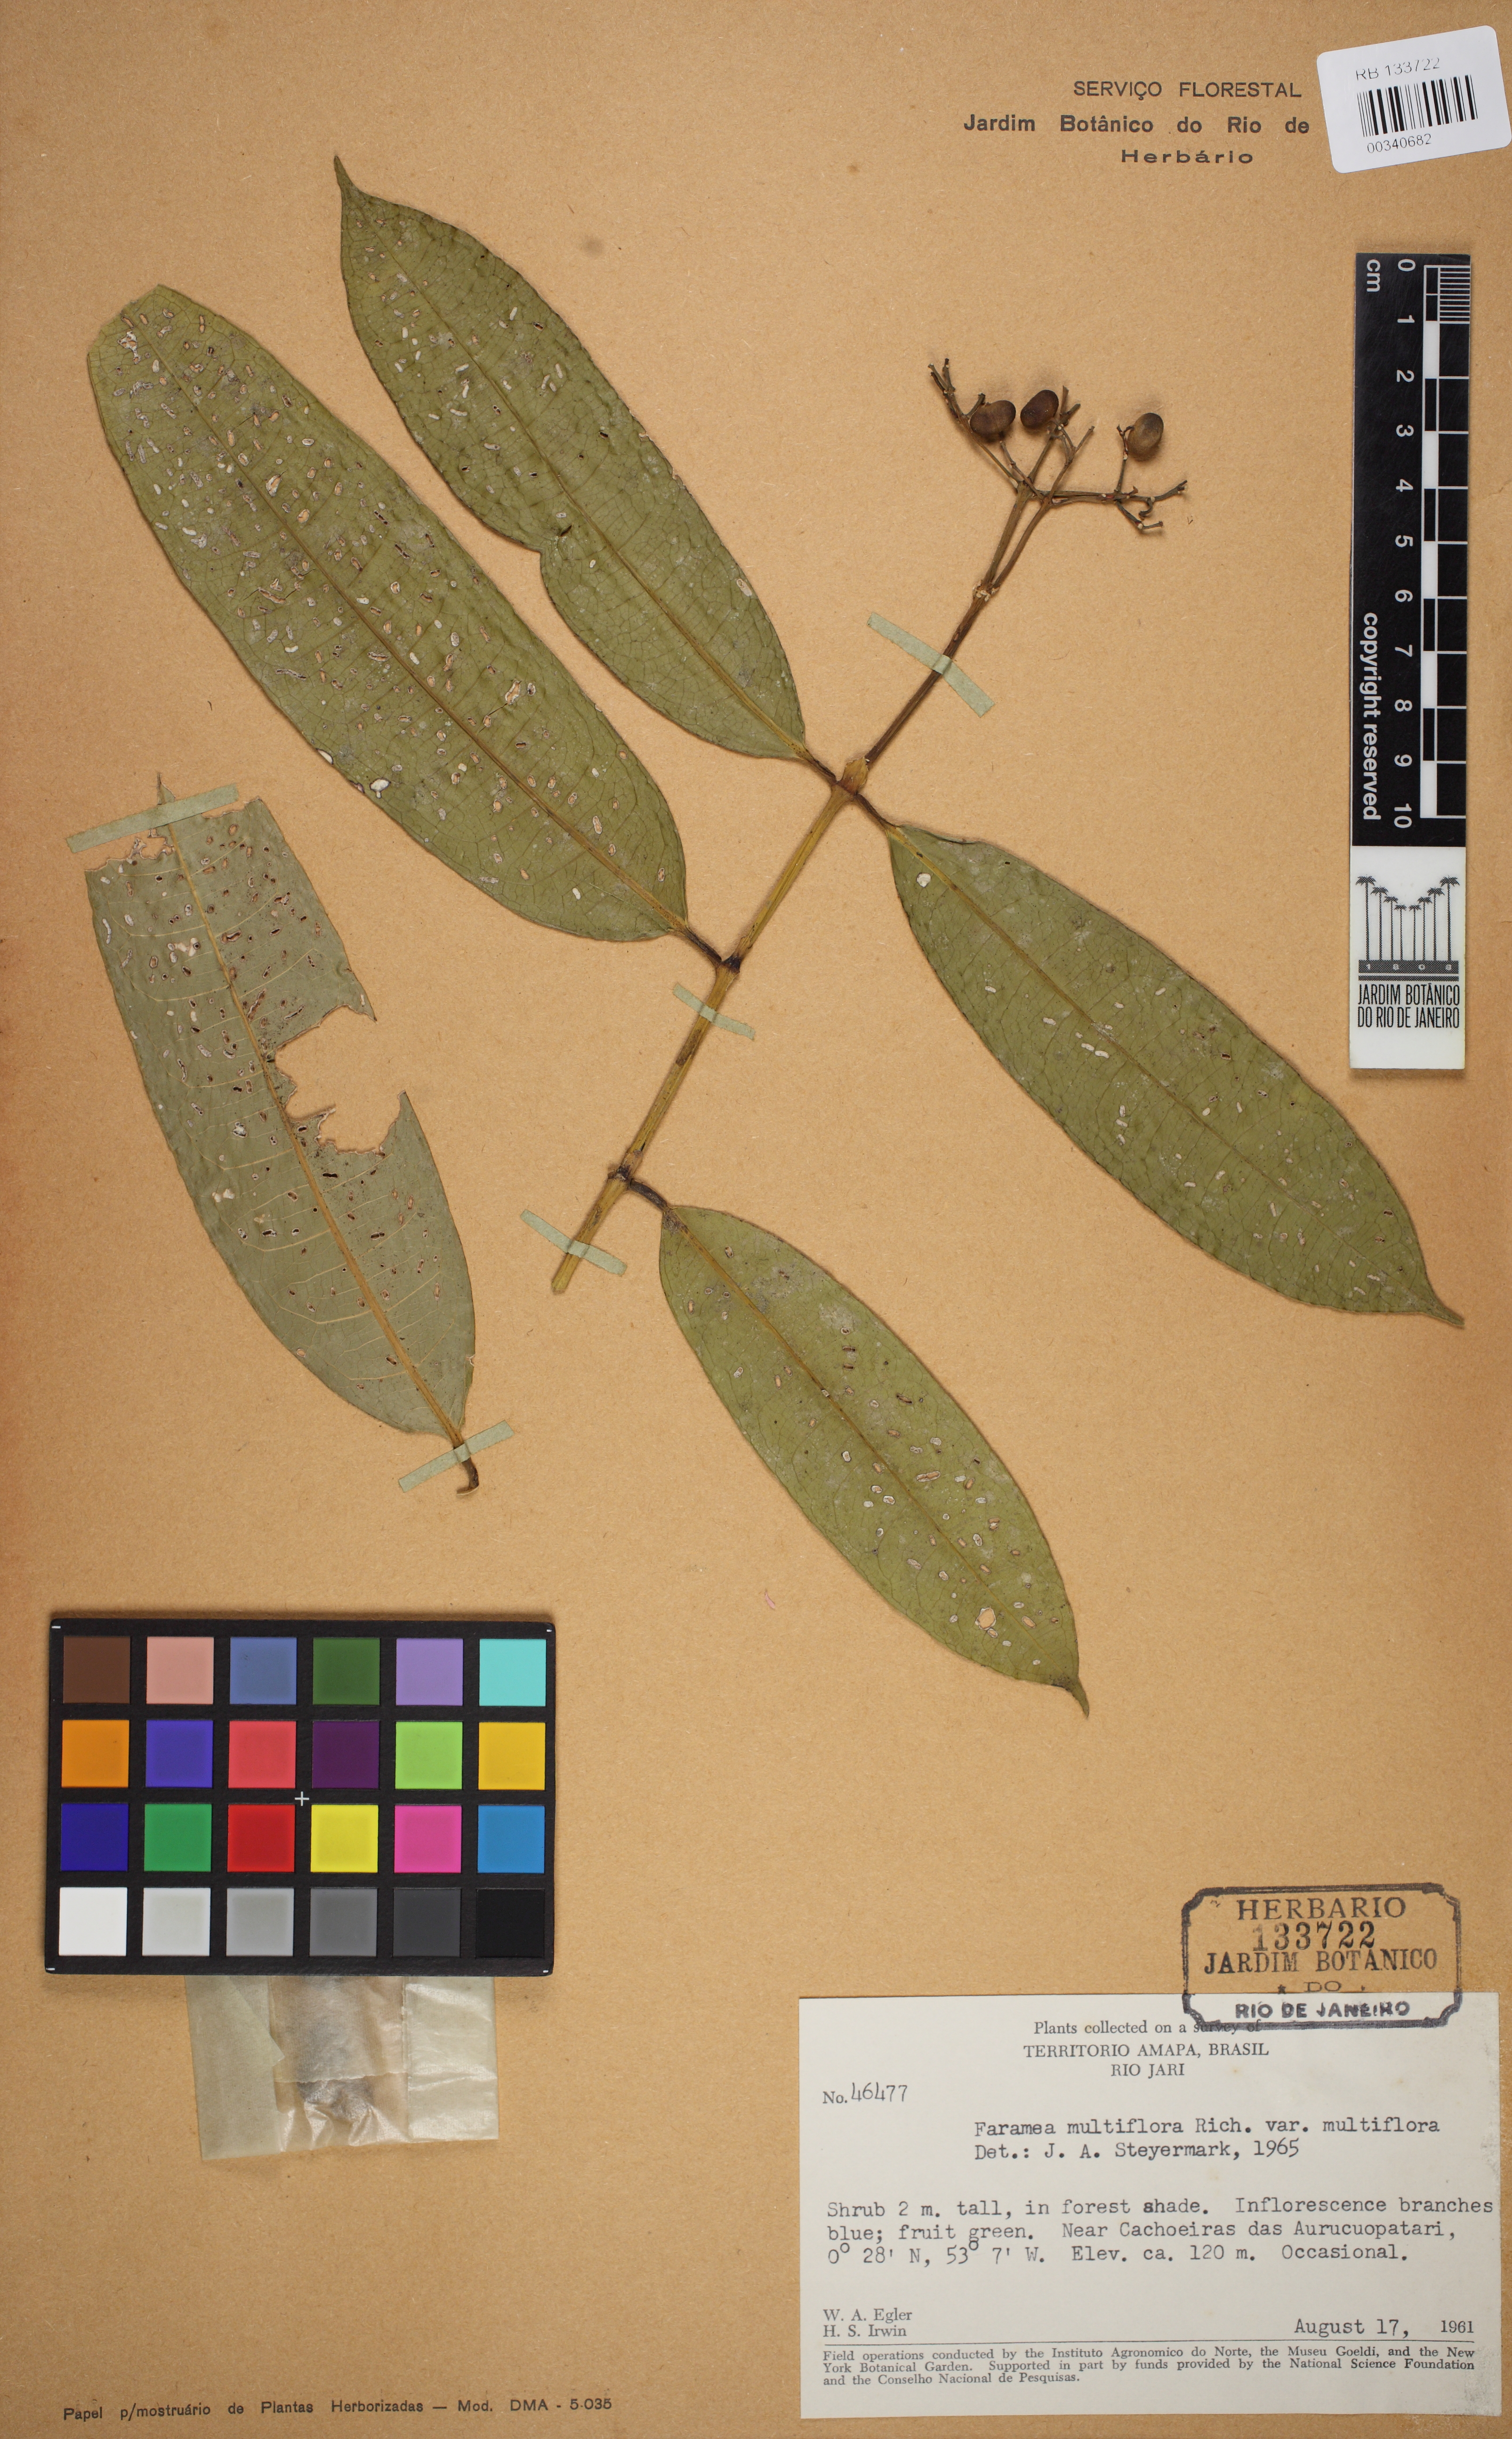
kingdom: Plantae
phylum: Tracheophyta
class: Magnoliopsida
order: Gentianales
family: Rubiaceae
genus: Faramea
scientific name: Faramea multiflora
